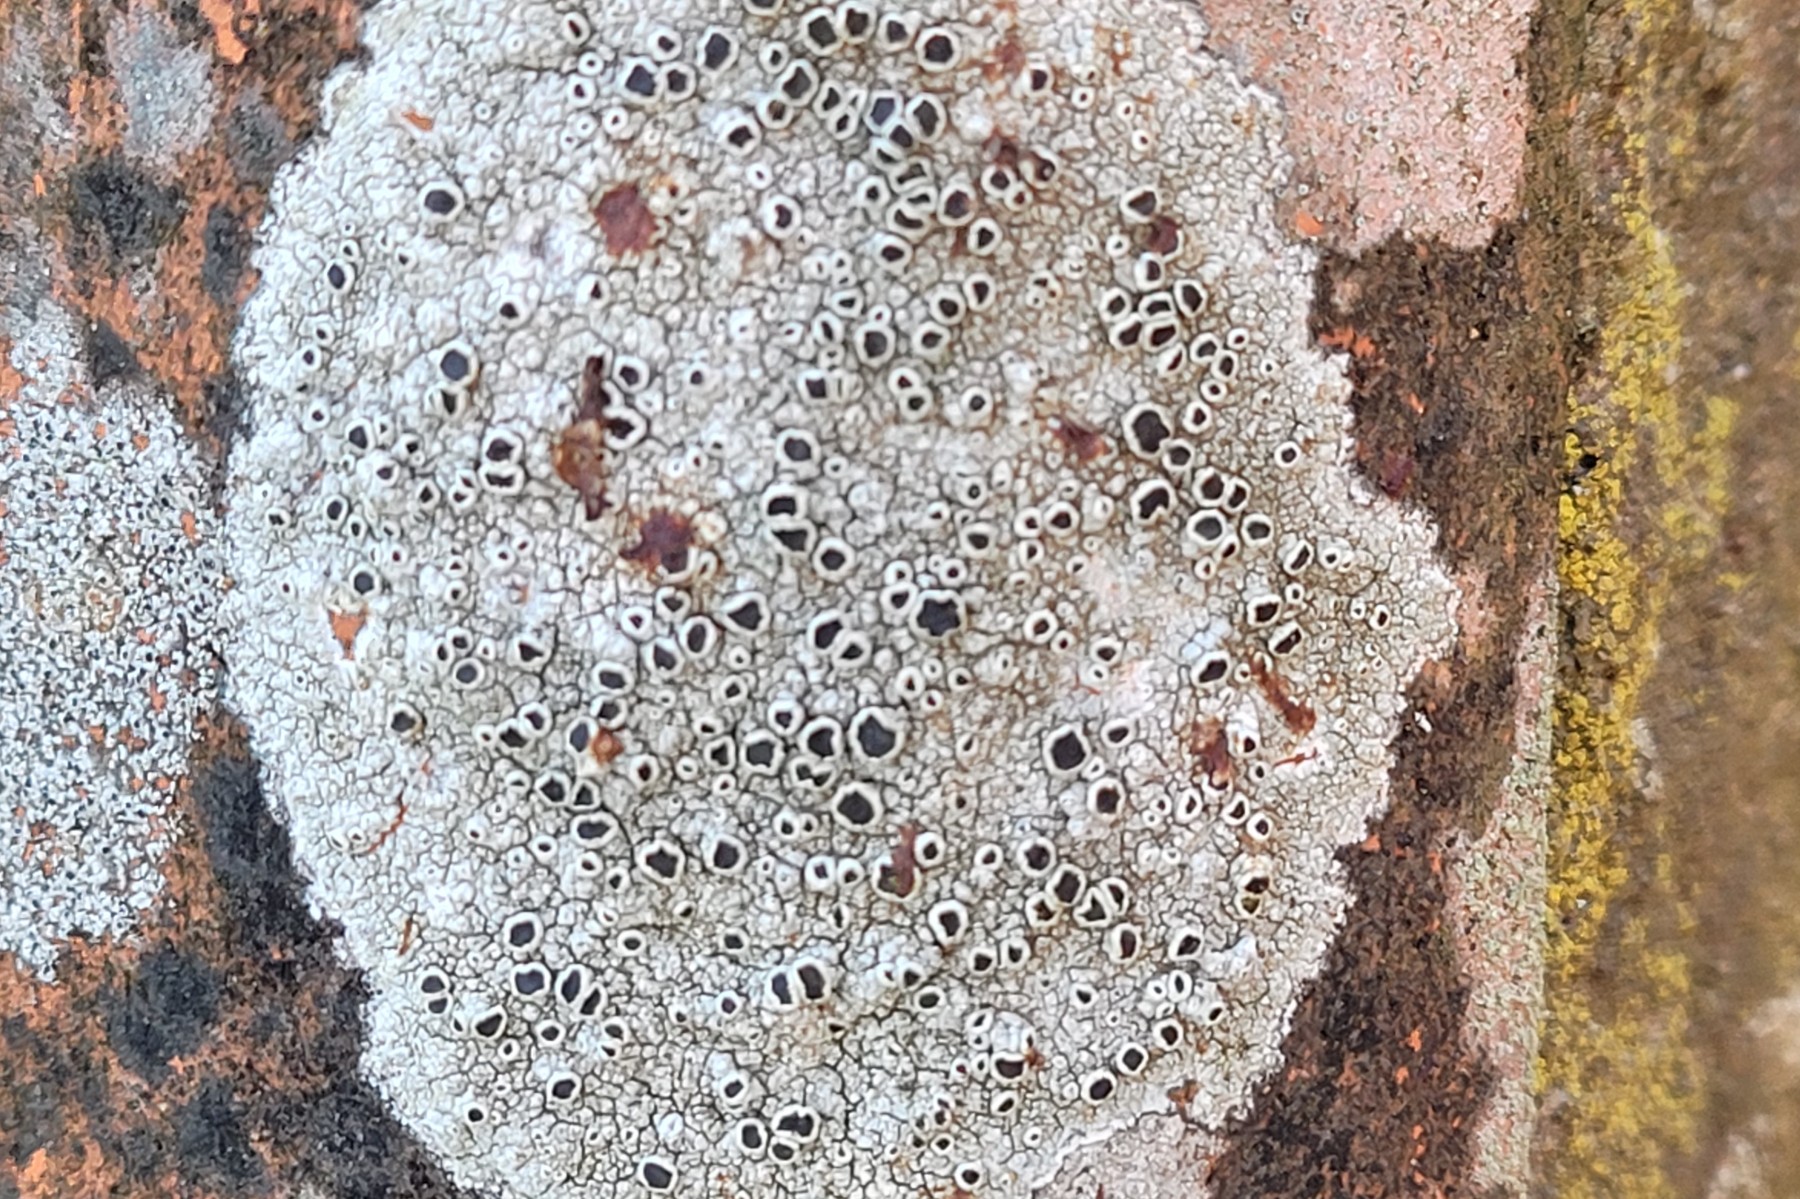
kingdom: Fungi
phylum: Ascomycota
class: Lecanoromycetes
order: Lecanorales
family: Tephromelataceae
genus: Tephromela
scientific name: Tephromela atra
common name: sortfrugtet kantskivelav
